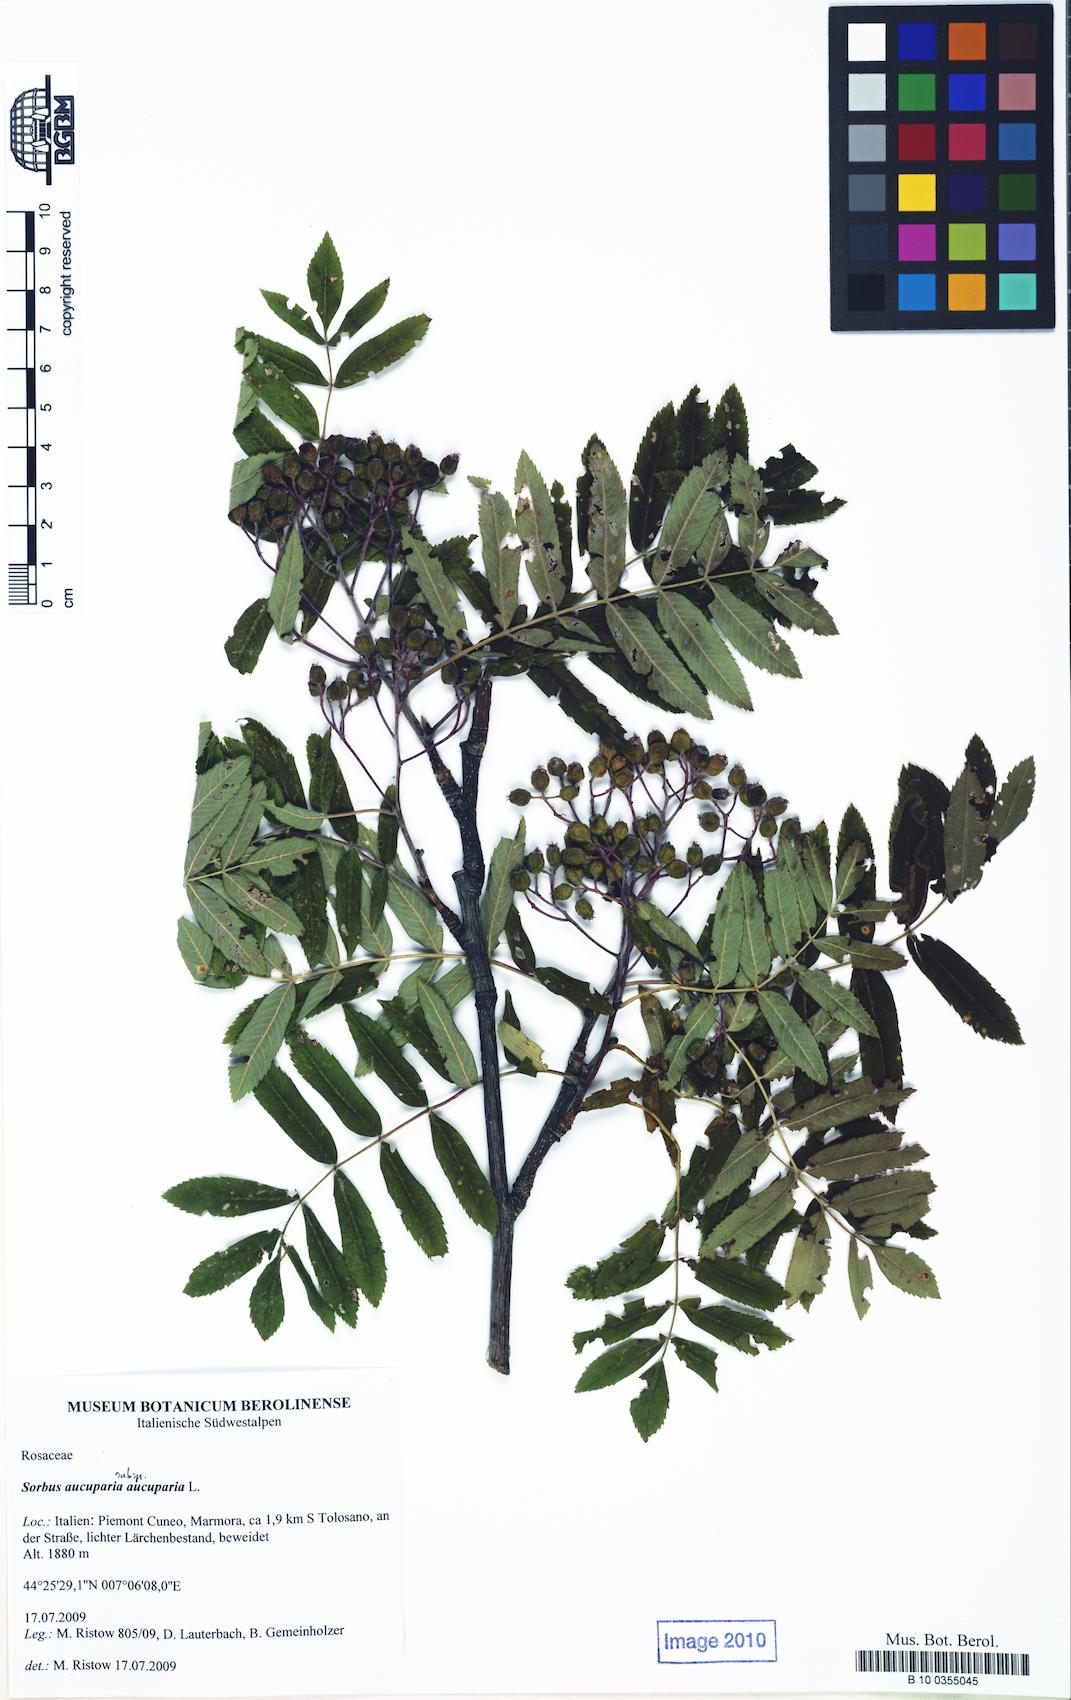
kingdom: Plantae
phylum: Tracheophyta
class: Magnoliopsida
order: Rosales
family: Rosaceae
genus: Sorbus
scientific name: Sorbus aucuparia
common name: Rowan
